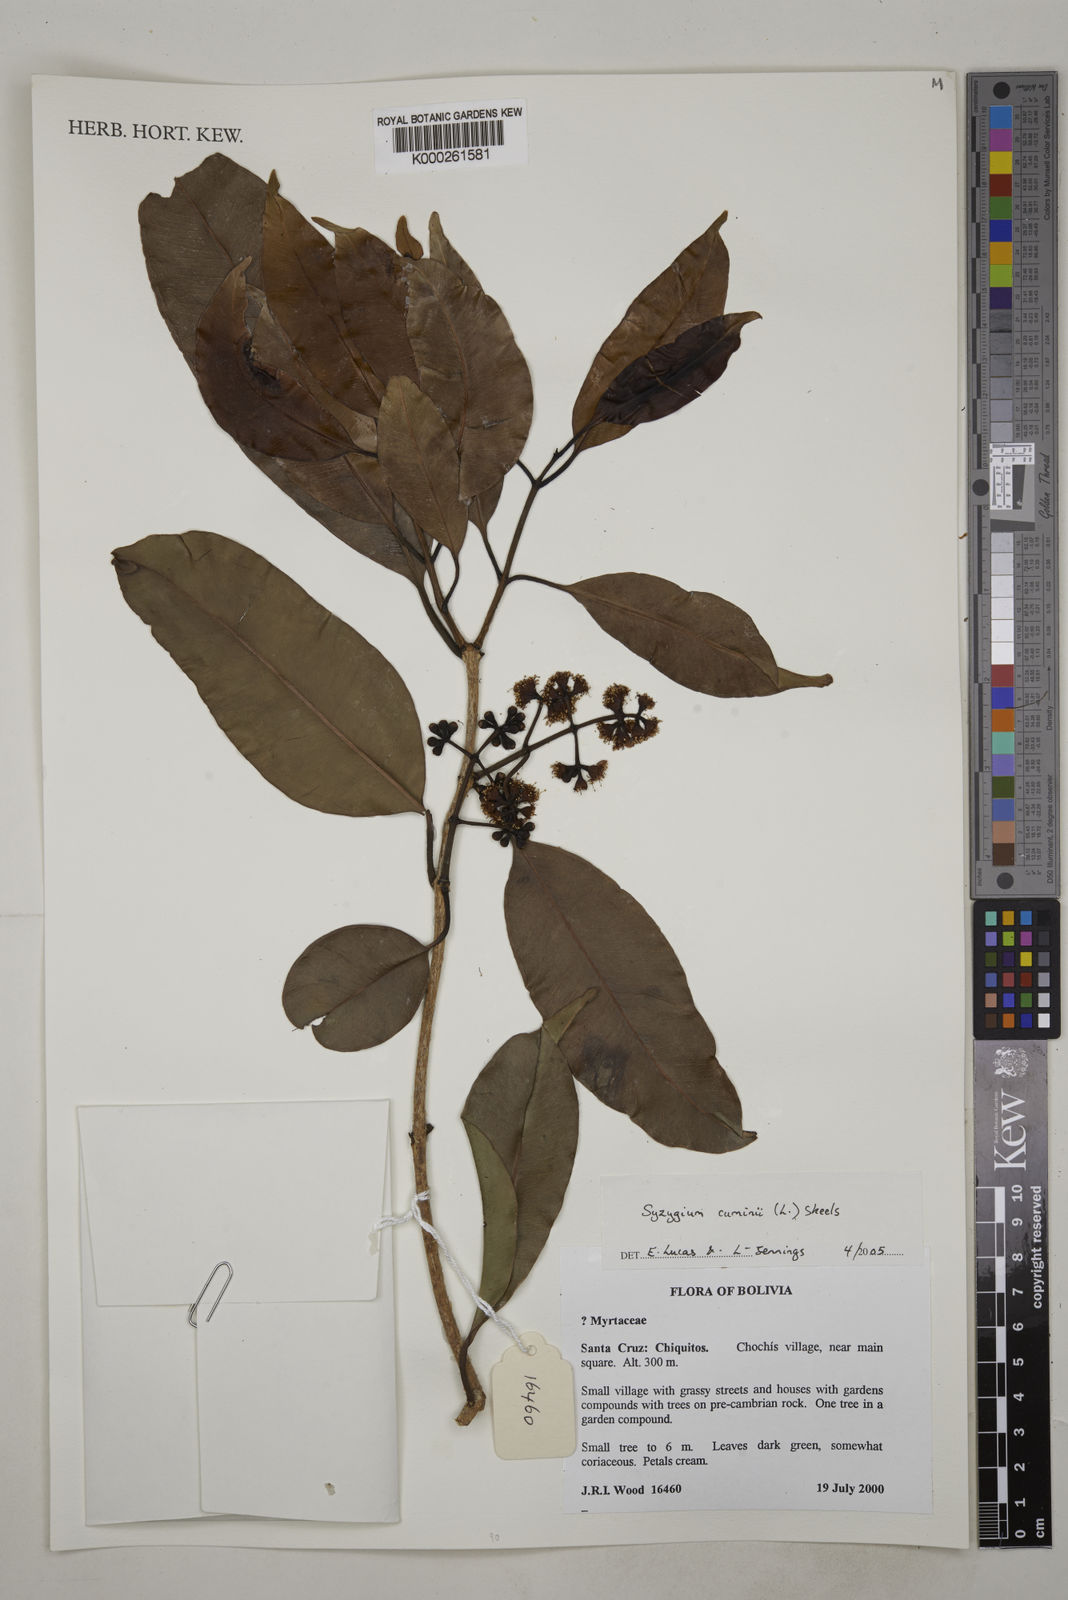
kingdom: Plantae
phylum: Tracheophyta
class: Magnoliopsida
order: Myrtales
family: Myrtaceae
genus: Syzygium
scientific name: Syzygium cumini
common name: Java plum
